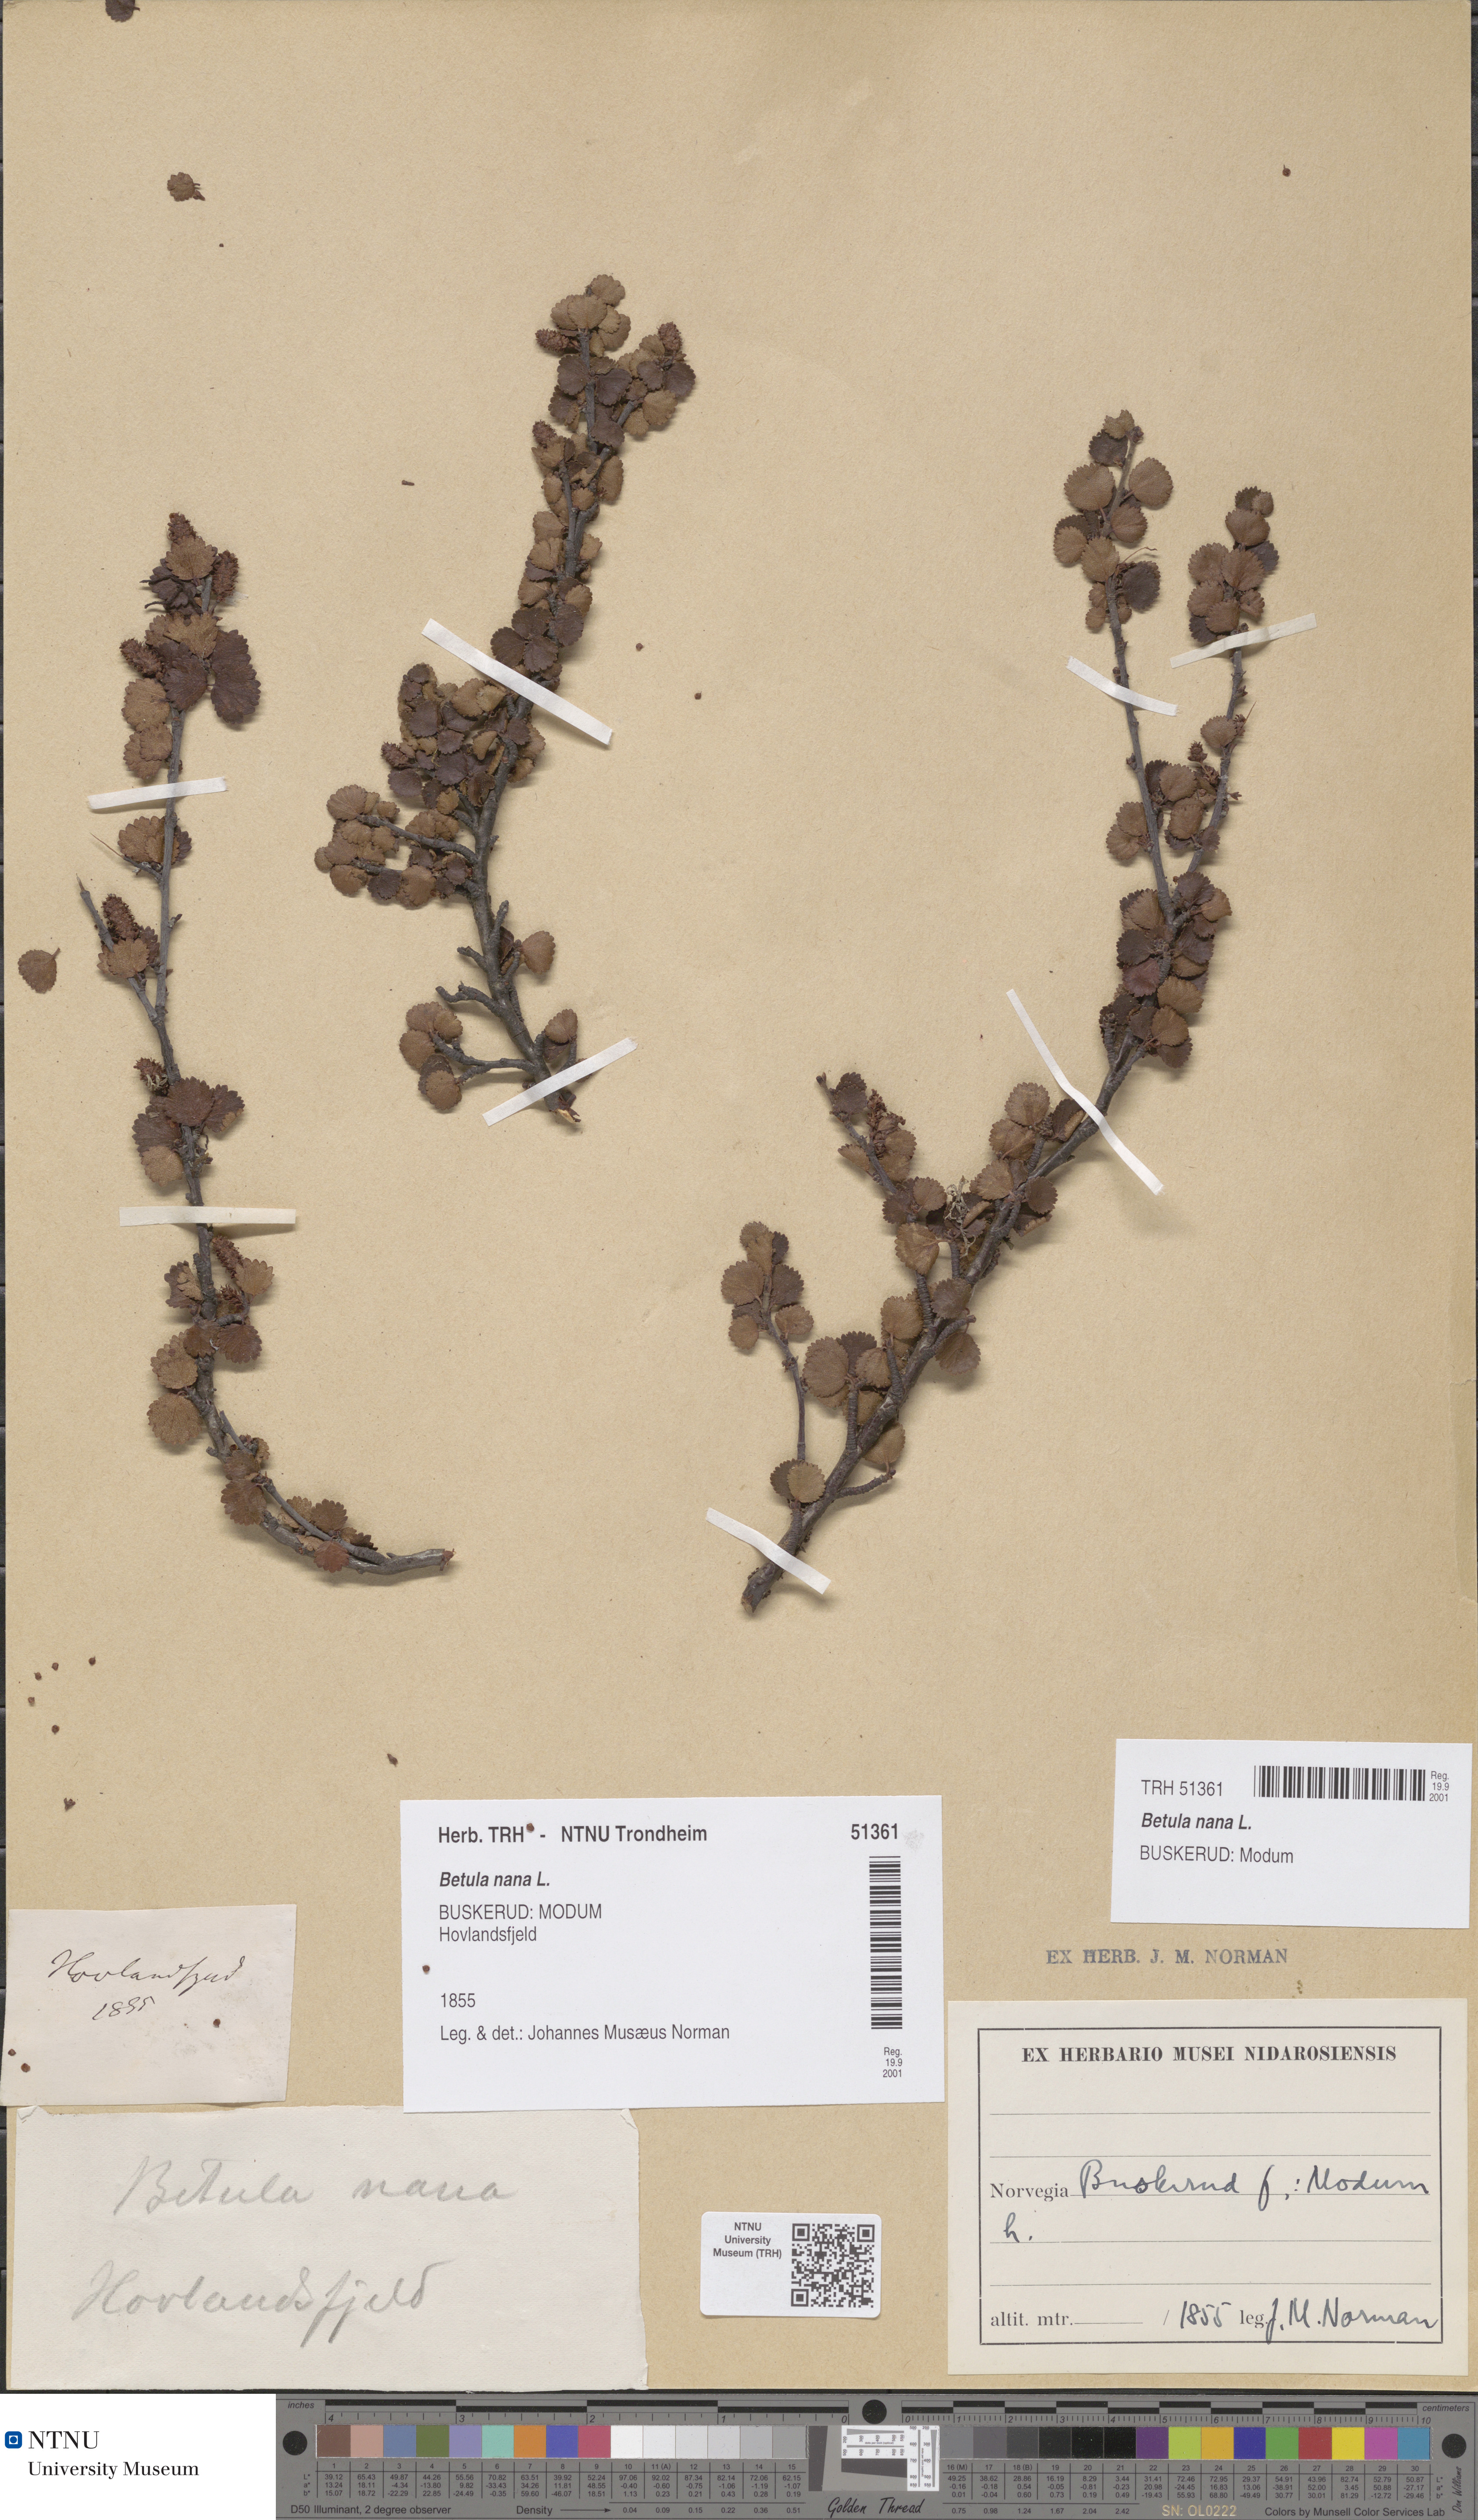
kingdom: Plantae
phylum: Tracheophyta
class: Magnoliopsida
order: Fagales
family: Betulaceae
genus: Betula
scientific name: Betula nana
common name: Arctic dwarf birch
